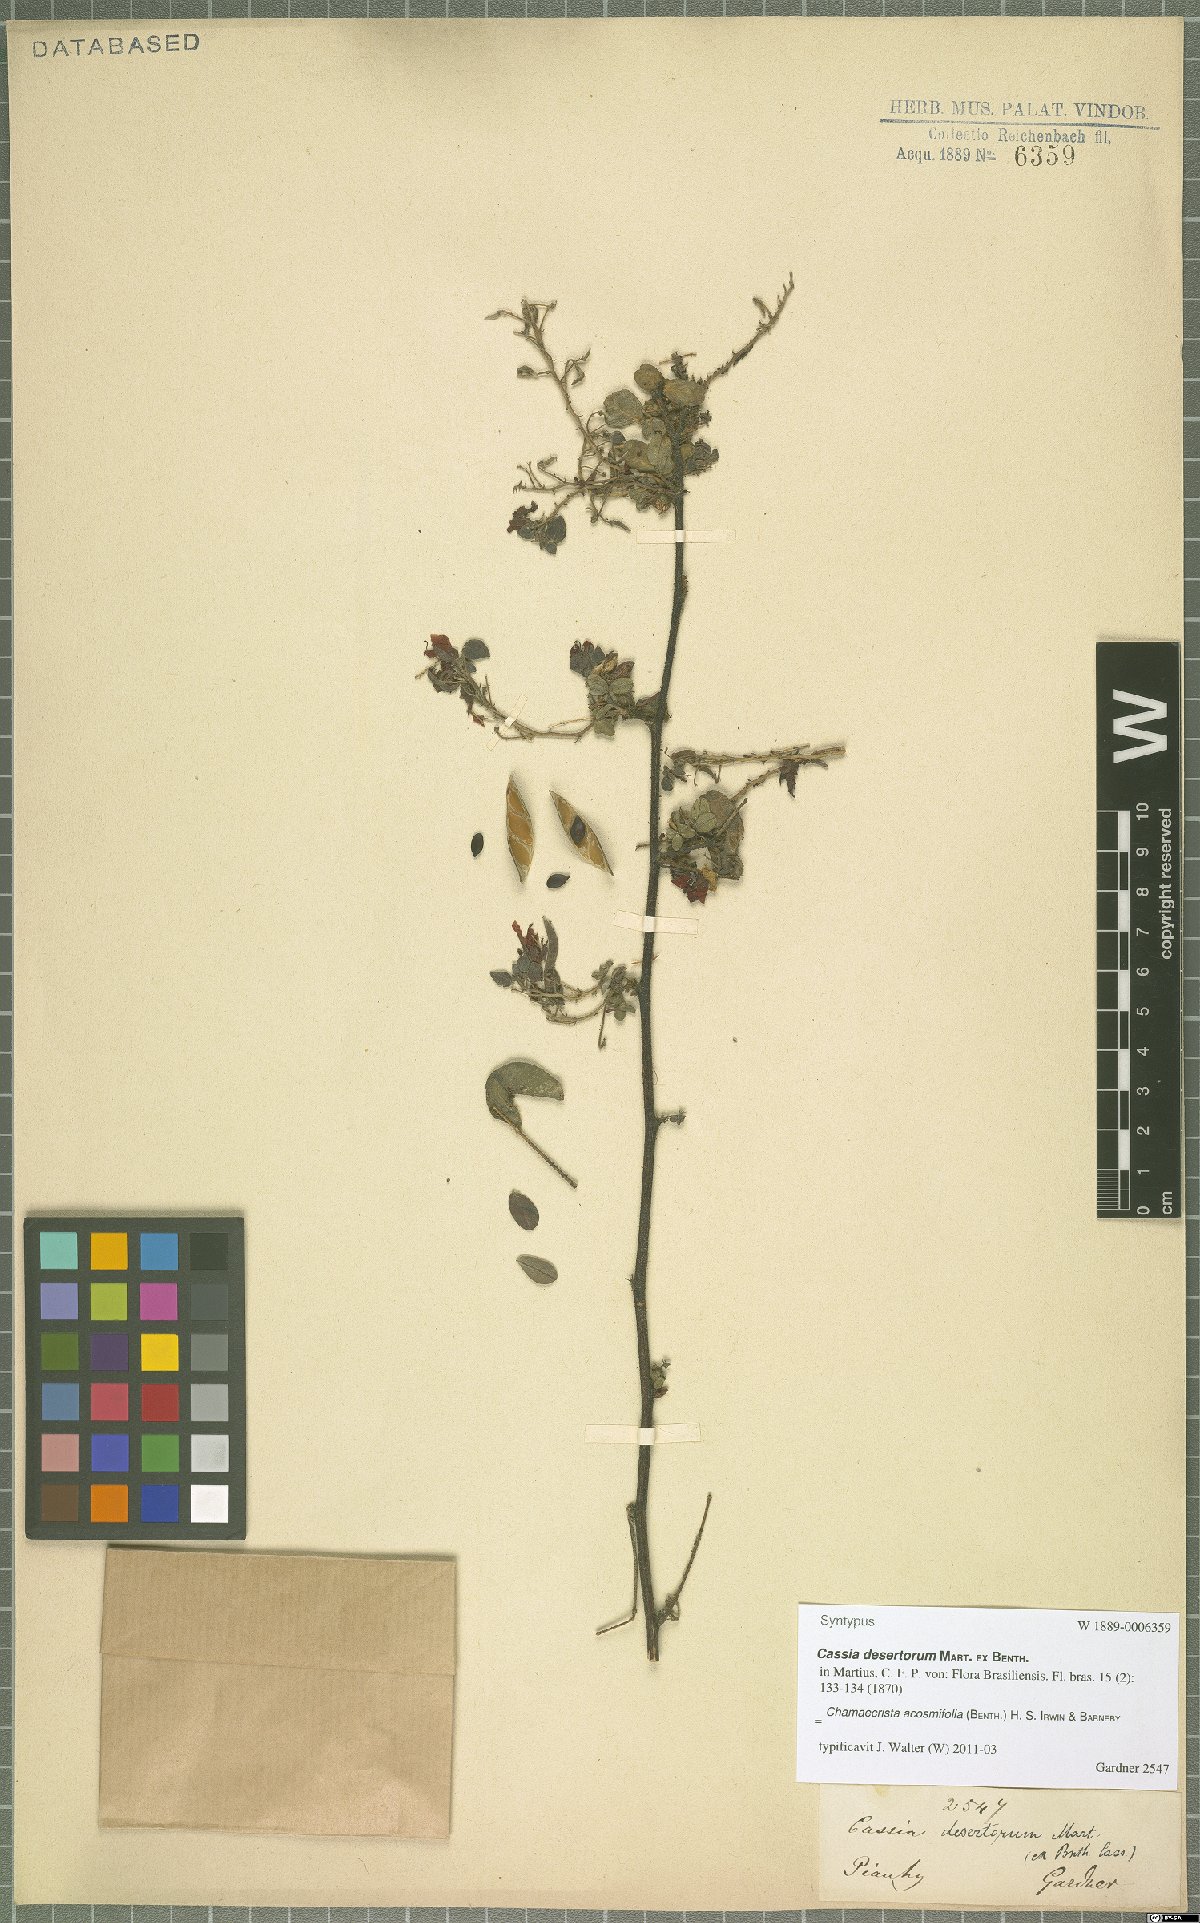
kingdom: Plantae
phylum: Tracheophyta
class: Magnoliopsida
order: Fabales
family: Fabaceae
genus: Chamaecrista
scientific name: Chamaecrista acosmifolia
